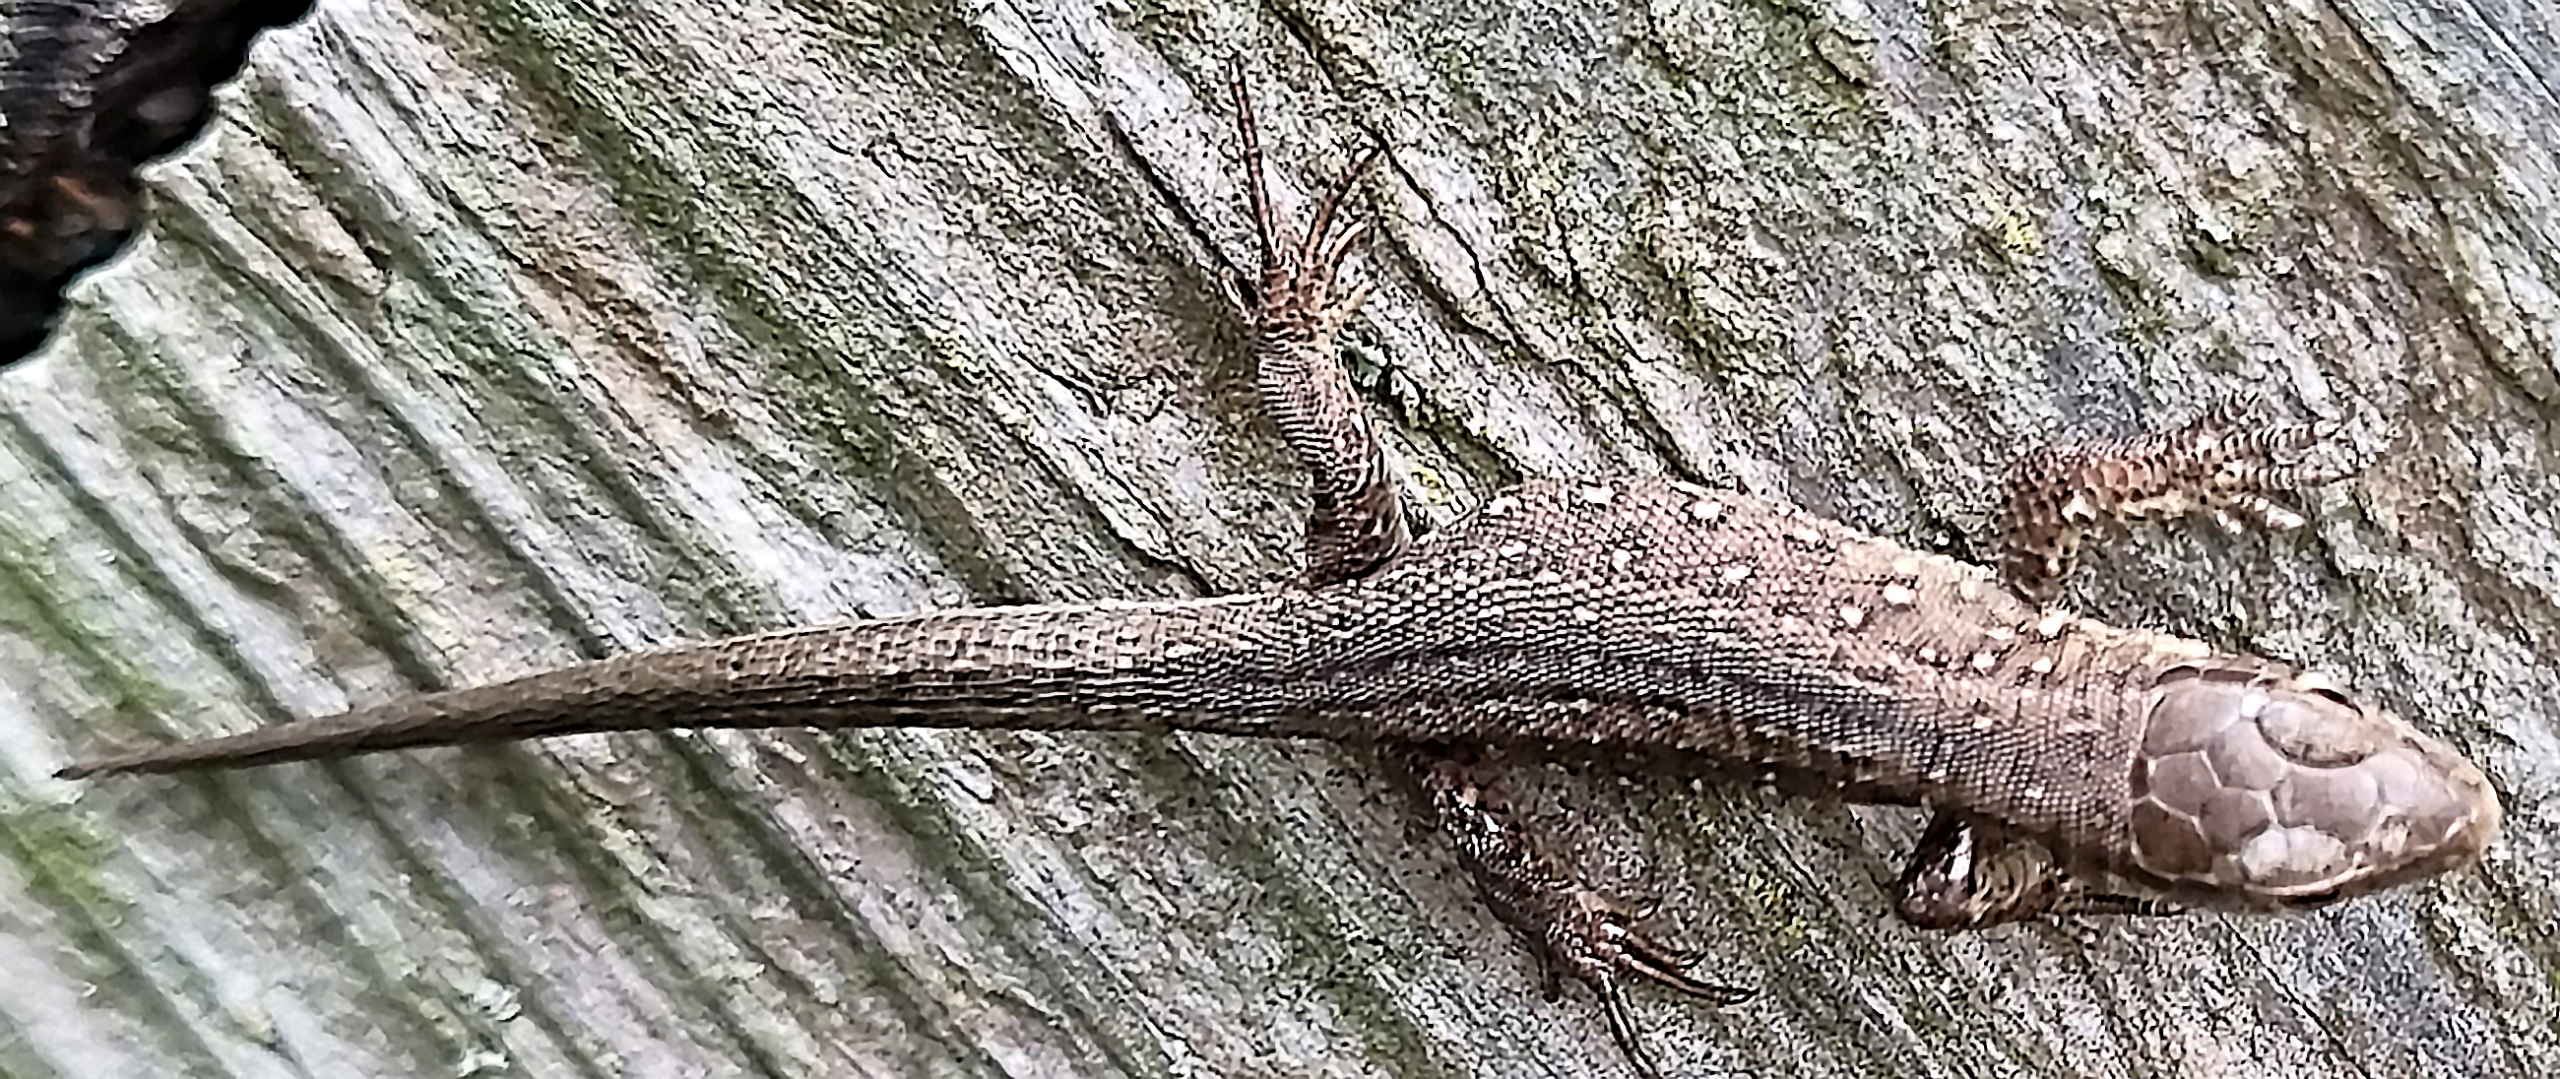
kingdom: Animalia
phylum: Chordata
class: Squamata
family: Lacertidae
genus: Lacerta
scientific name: Lacerta agilis
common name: Markfirben
